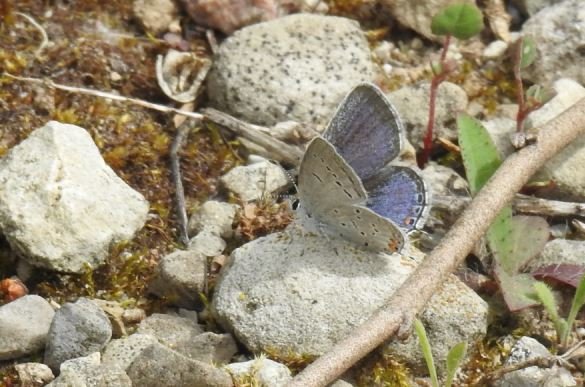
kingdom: Animalia
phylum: Arthropoda
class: Insecta
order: Lepidoptera
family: Lycaenidae
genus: Elkalyce
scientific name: Elkalyce comyntas
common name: Eastern Tailed-Blue
